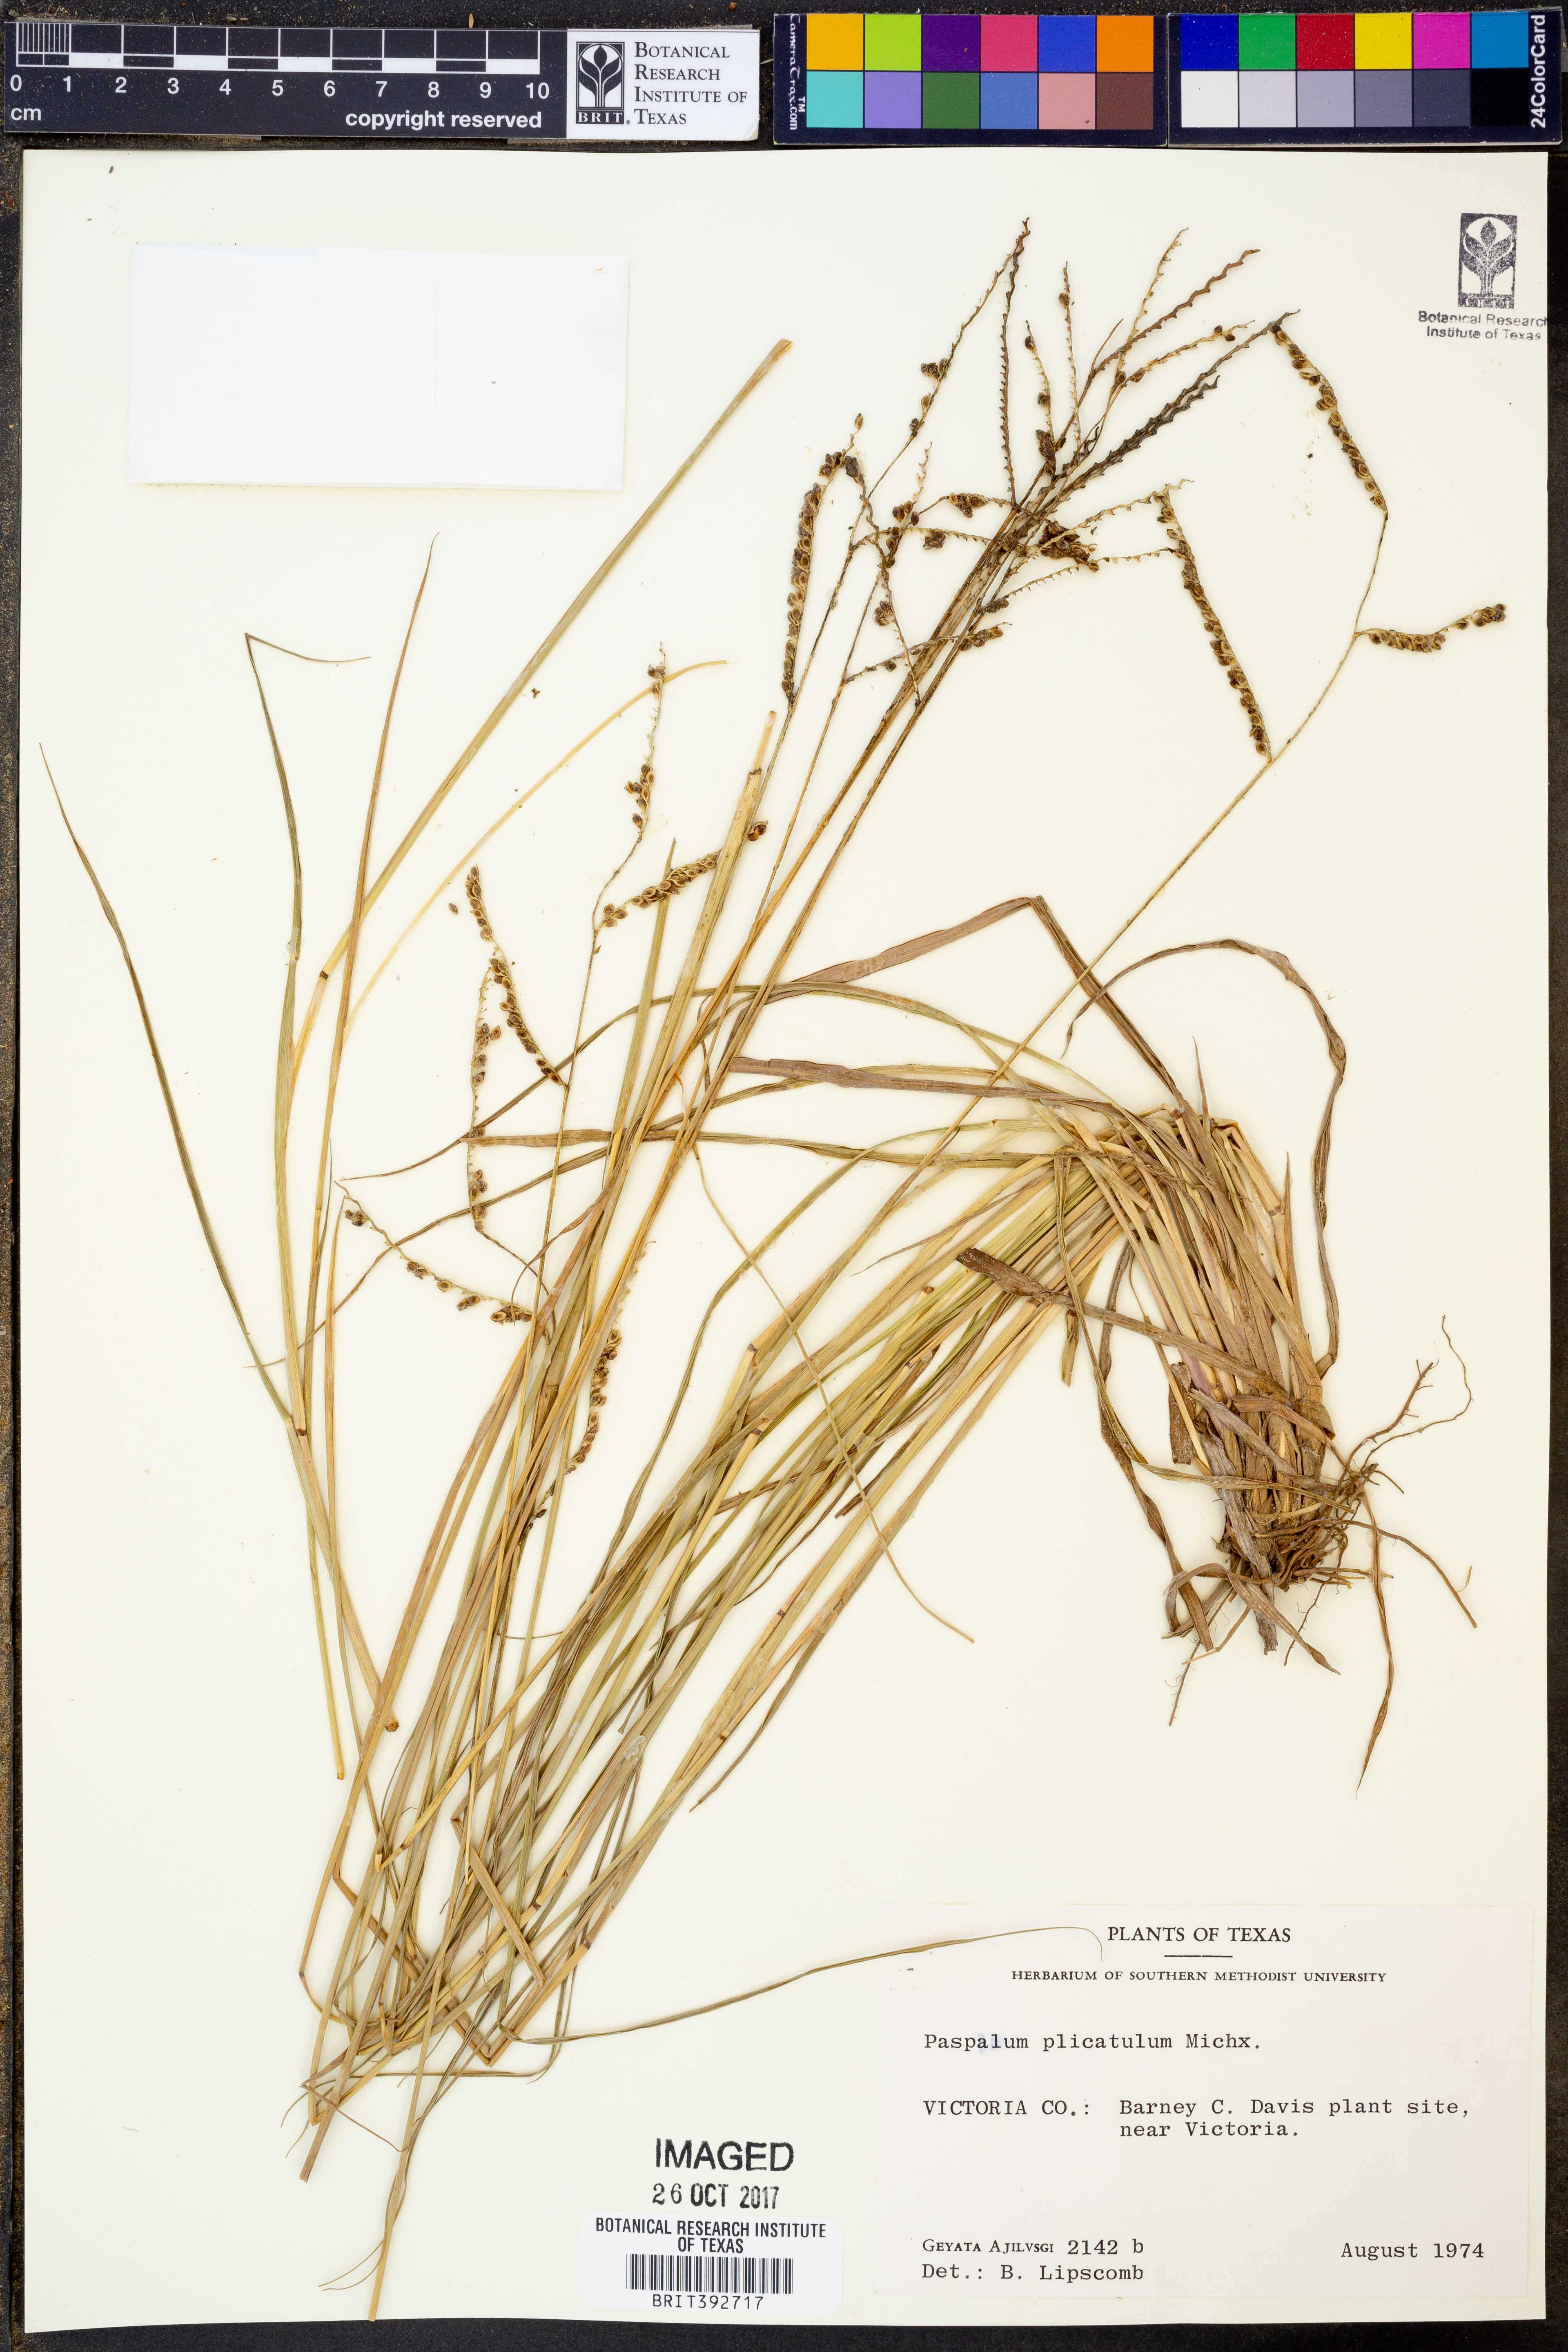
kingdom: Plantae
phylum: Tracheophyta
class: Liliopsida
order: Poales
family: Poaceae
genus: Paspalum
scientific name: Paspalum plicatulum
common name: Top paspalum
